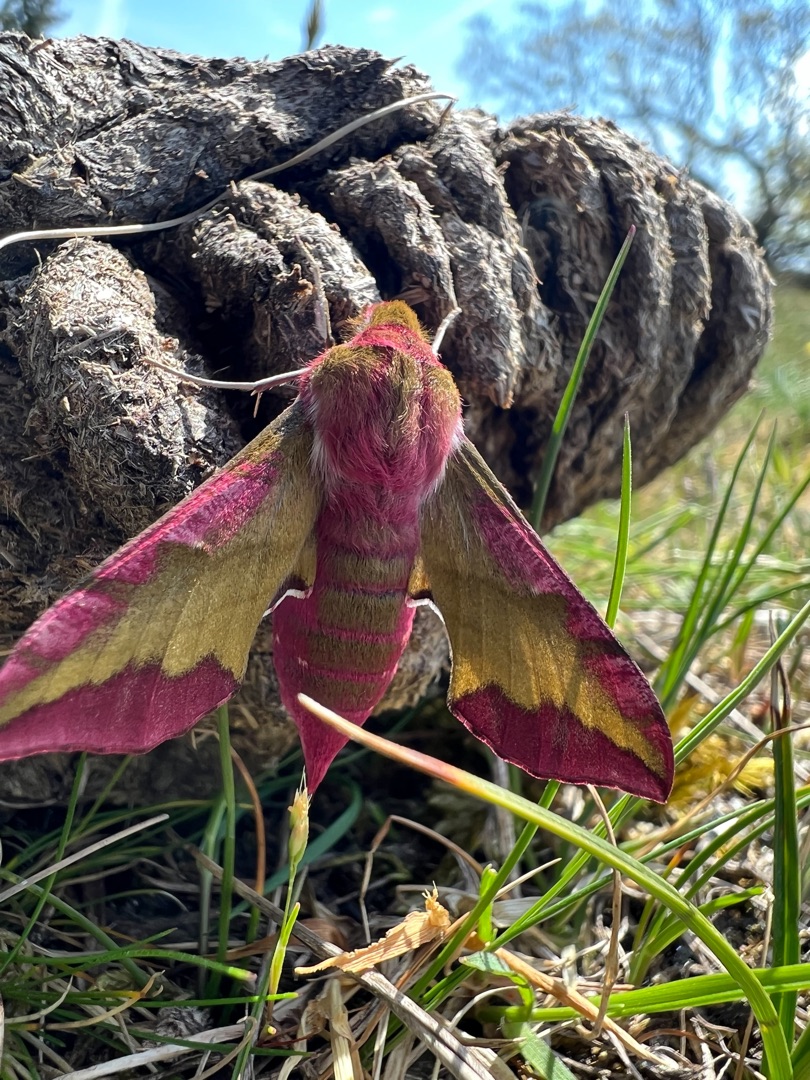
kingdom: Animalia
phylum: Arthropoda
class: Insecta
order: Lepidoptera
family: Sphingidae
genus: Deilephila
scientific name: Deilephila porcellus
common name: Lille vinsværmer
